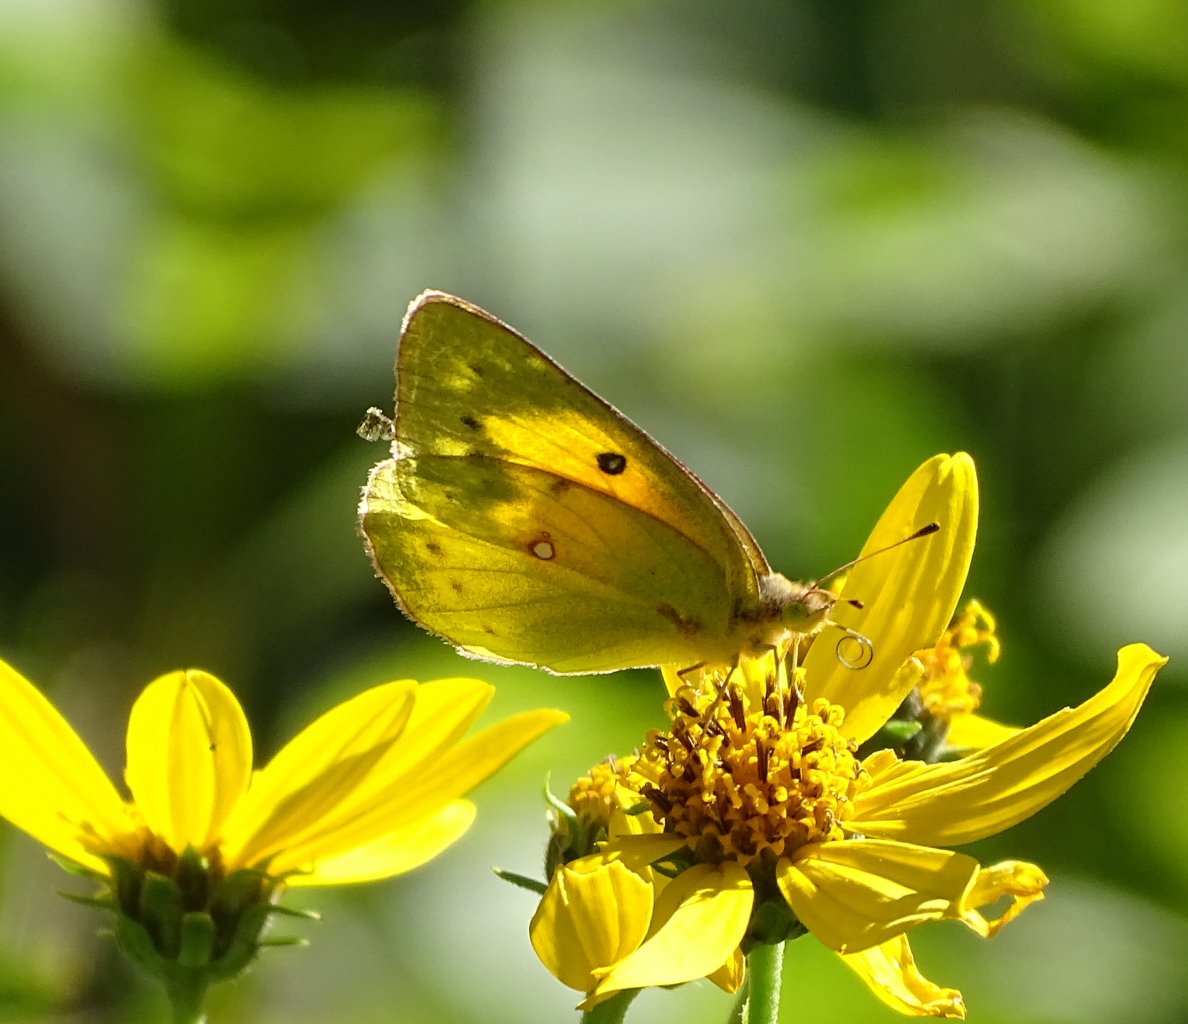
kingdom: Animalia
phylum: Arthropoda
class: Insecta
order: Lepidoptera
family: Pieridae
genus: Colias
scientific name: Colias eurytheme
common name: Orange Sulphur
